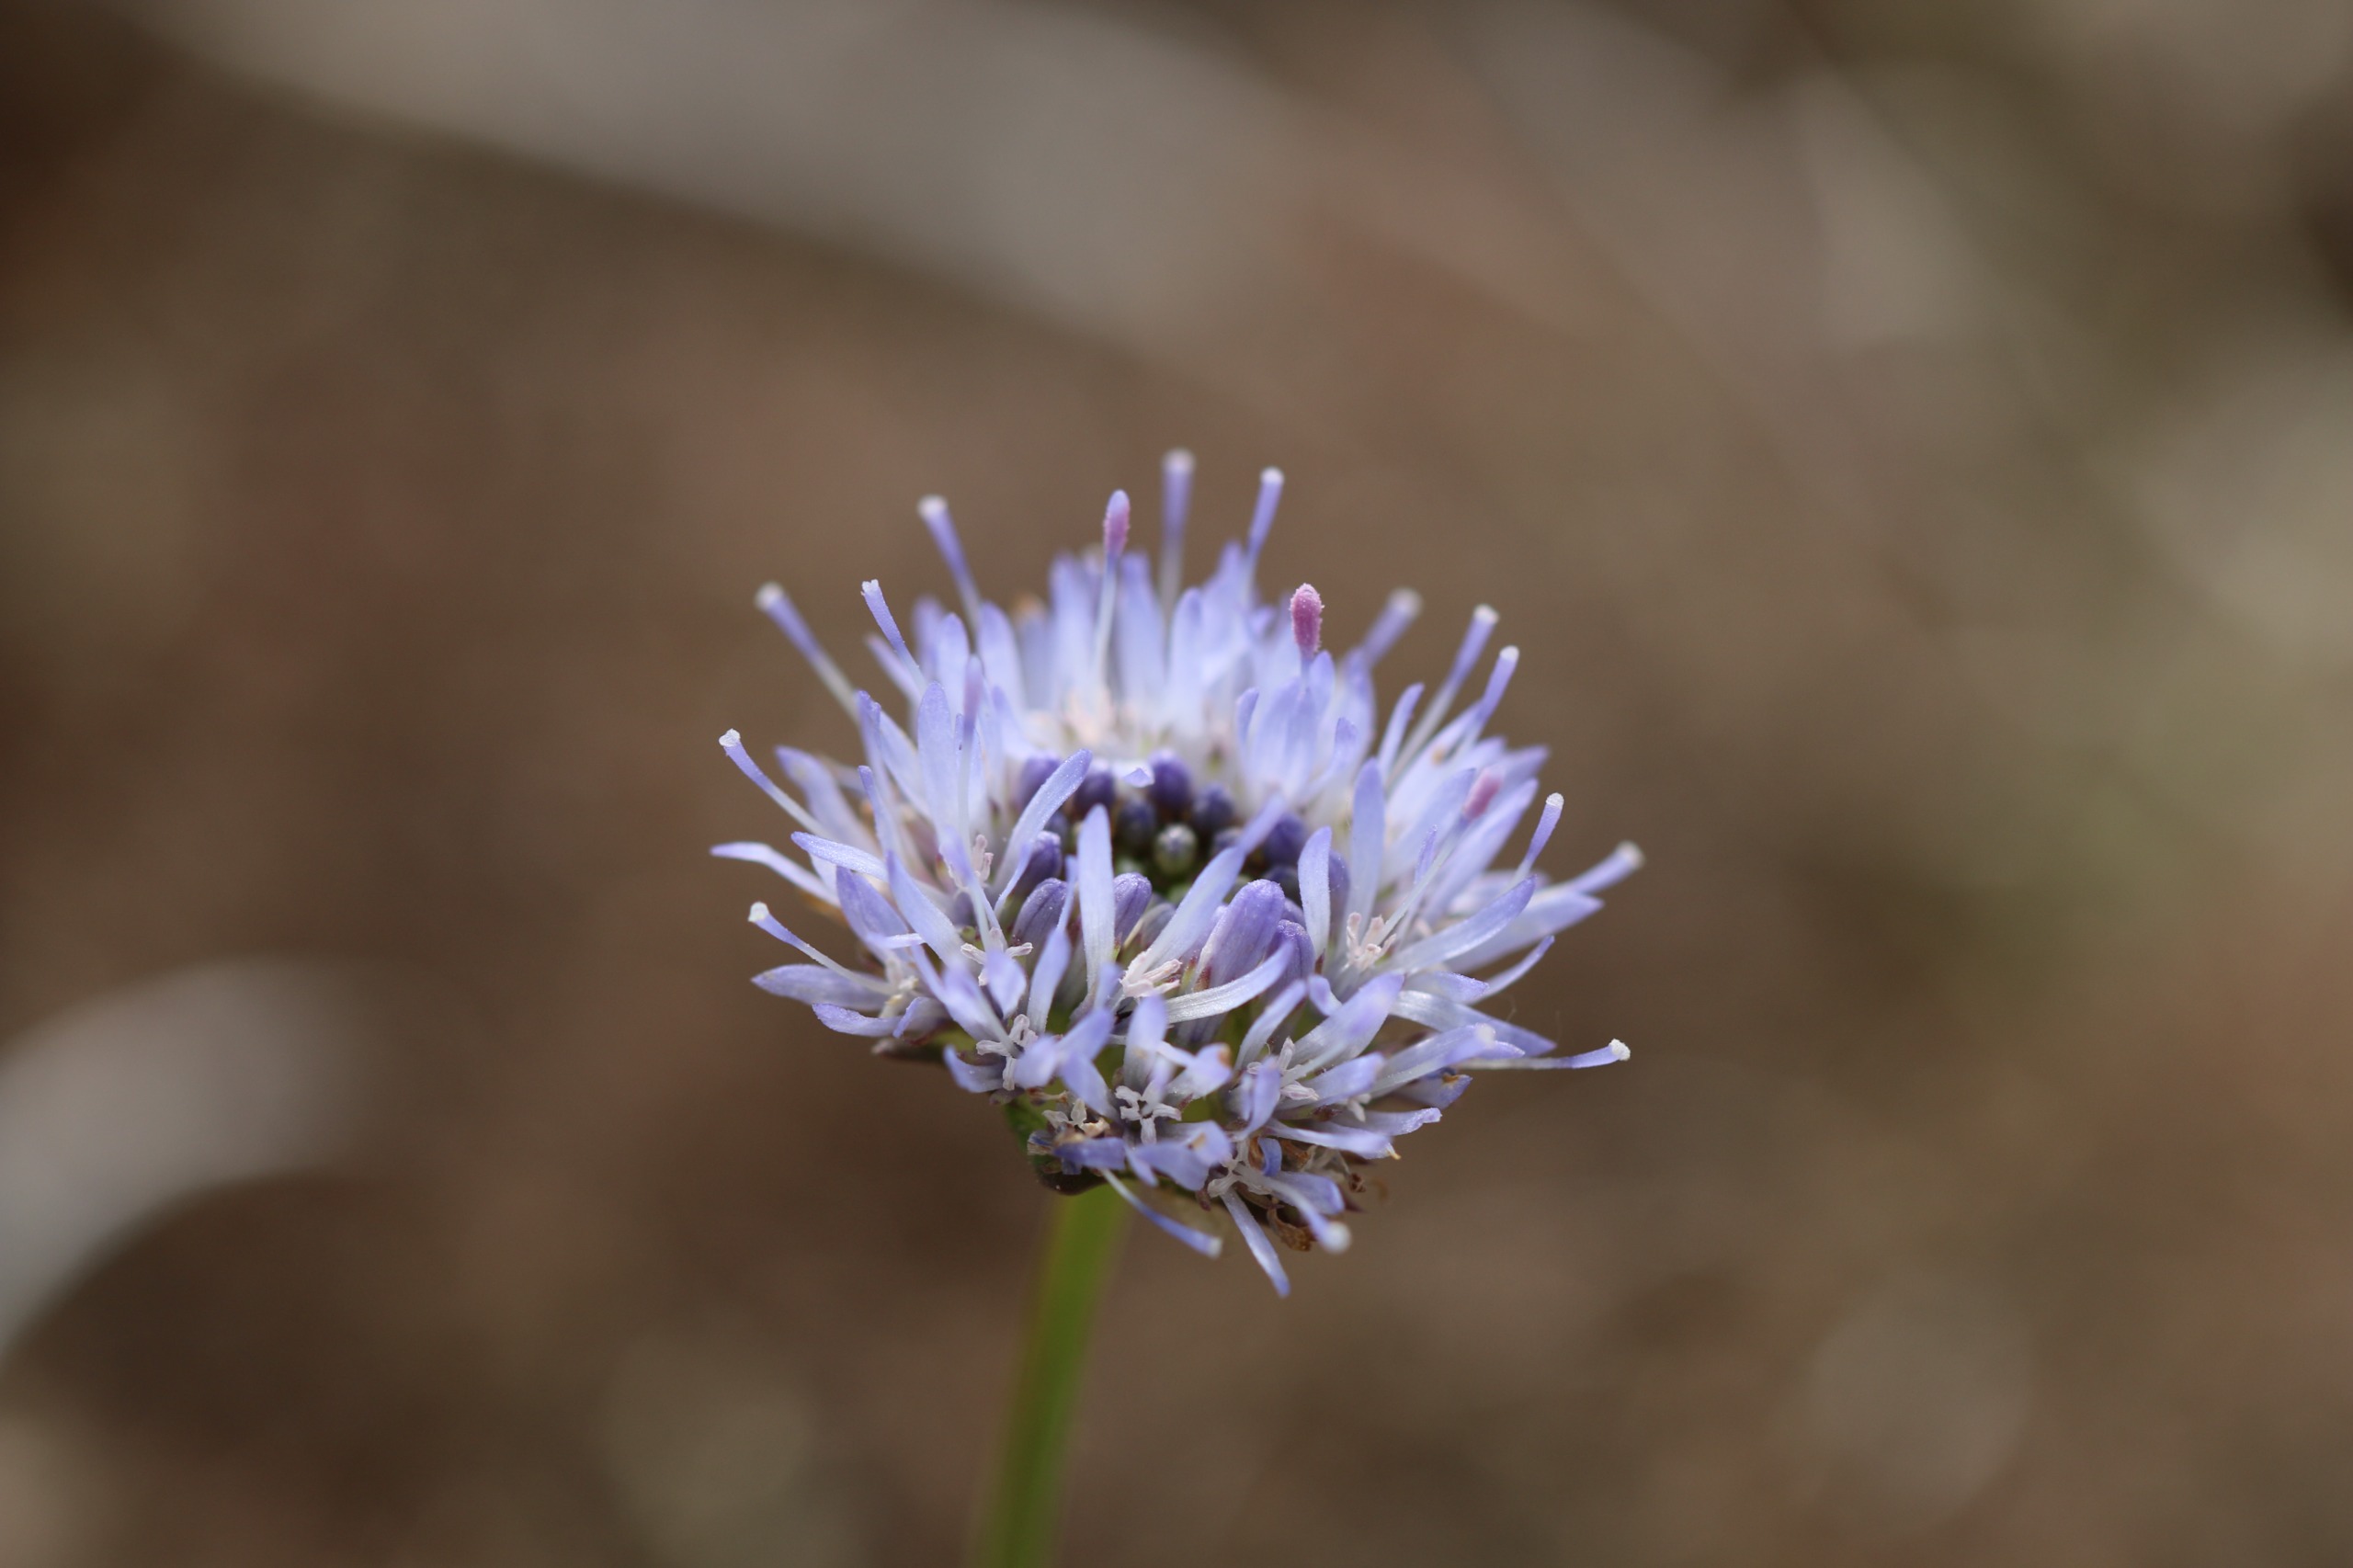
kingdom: Plantae
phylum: Tracheophyta
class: Magnoliopsida
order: Asterales
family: Campanulaceae
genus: Jasione
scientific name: Jasione montana
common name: Blåmunke
